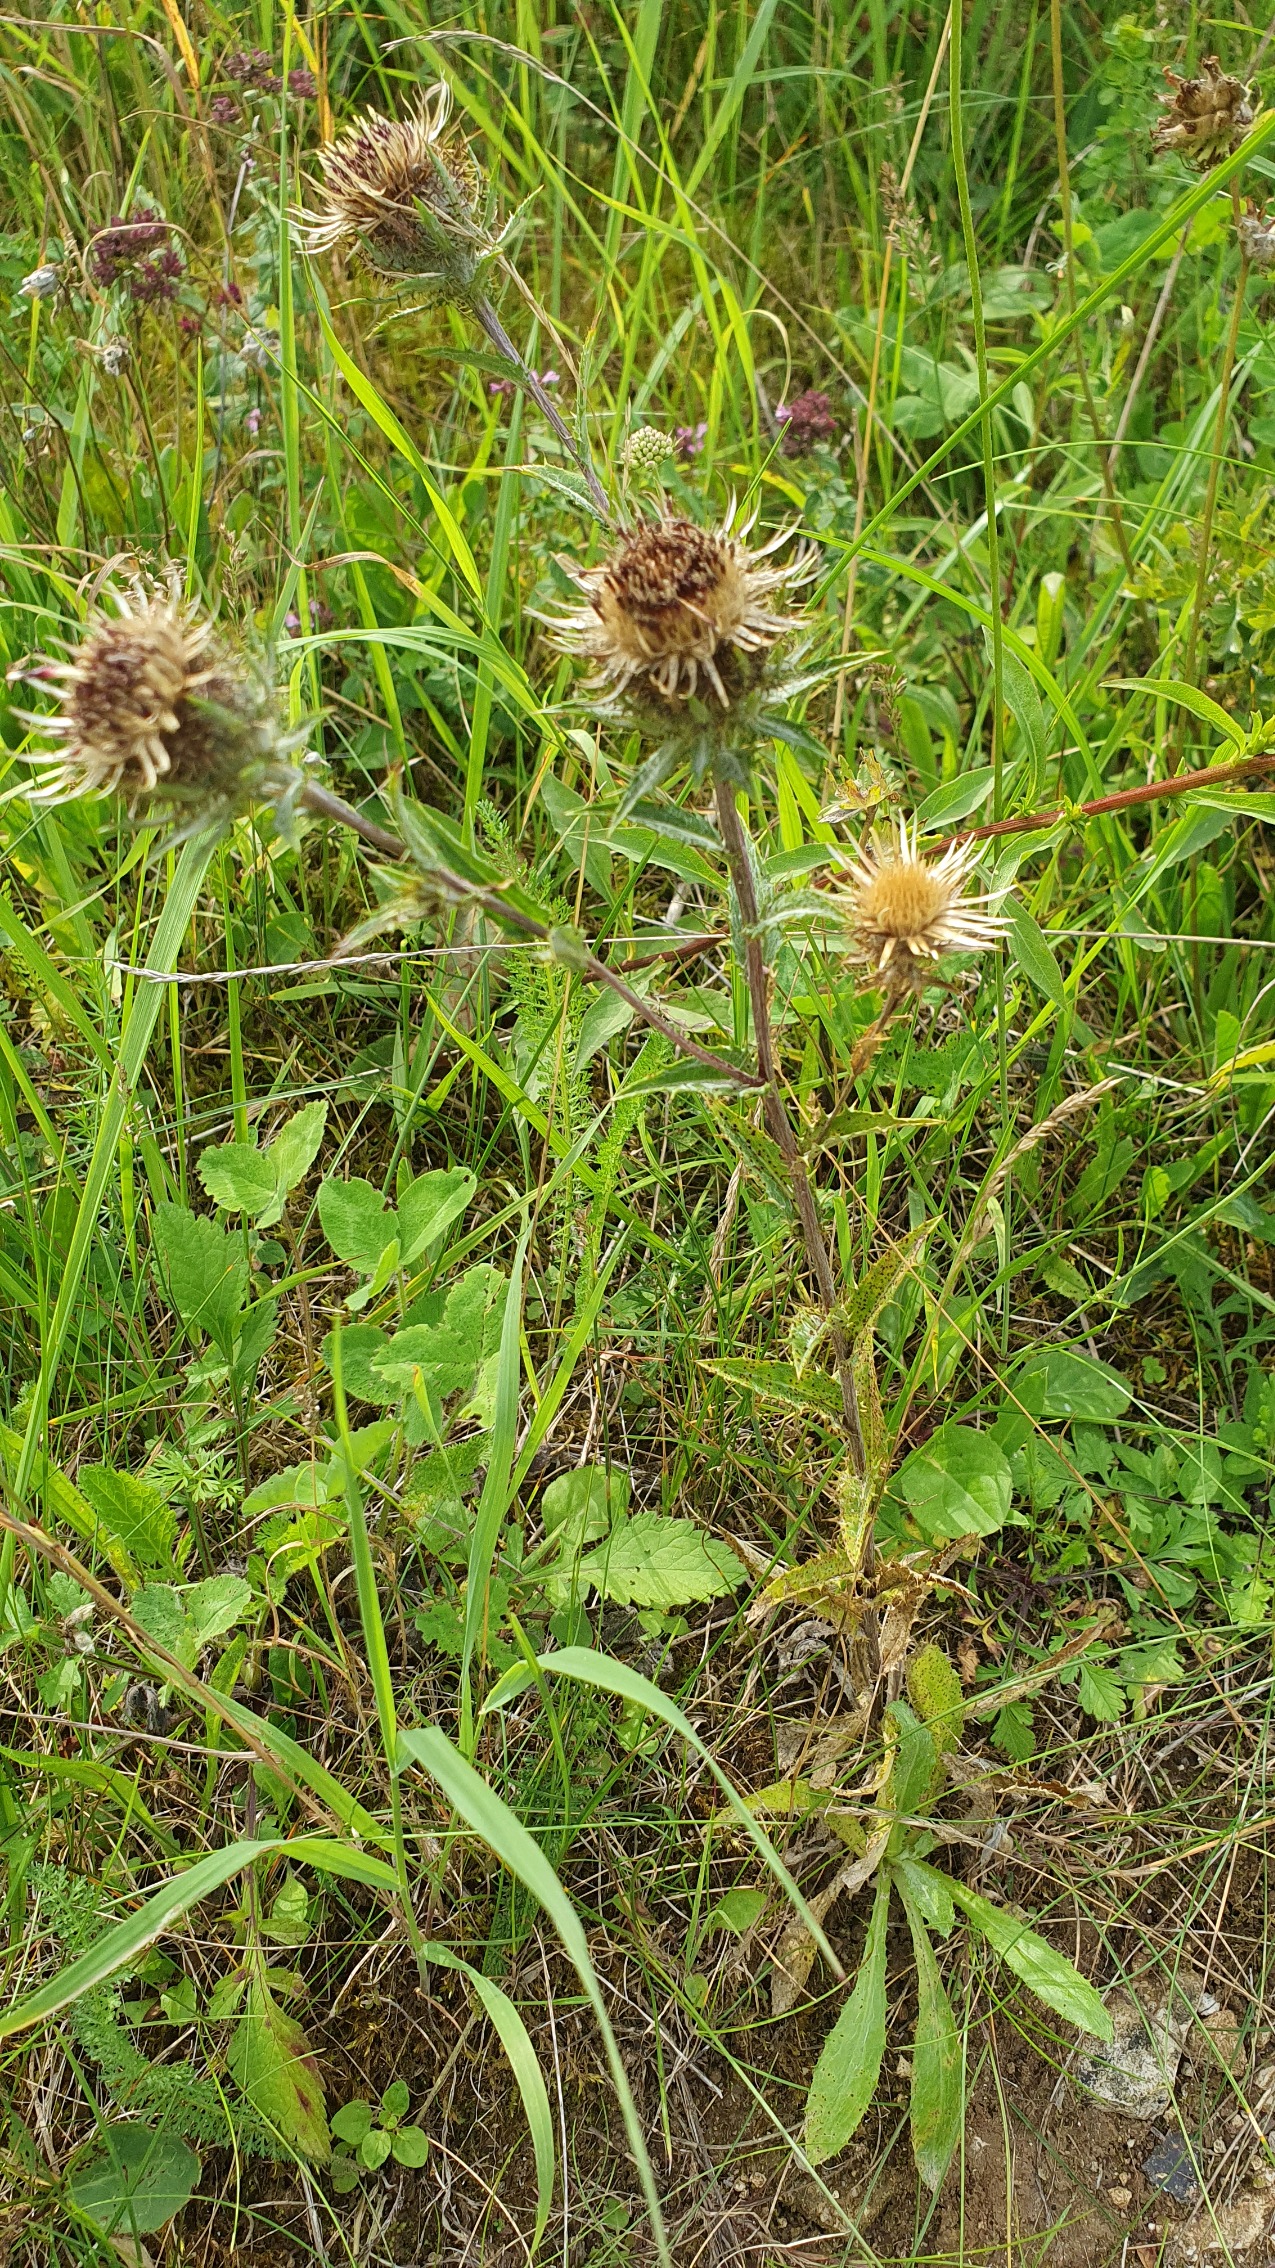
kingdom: Plantae
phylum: Tracheophyta
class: Magnoliopsida
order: Asterales
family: Asteraceae
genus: Carlina
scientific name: Carlina vulgaris
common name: Bakketidsel
